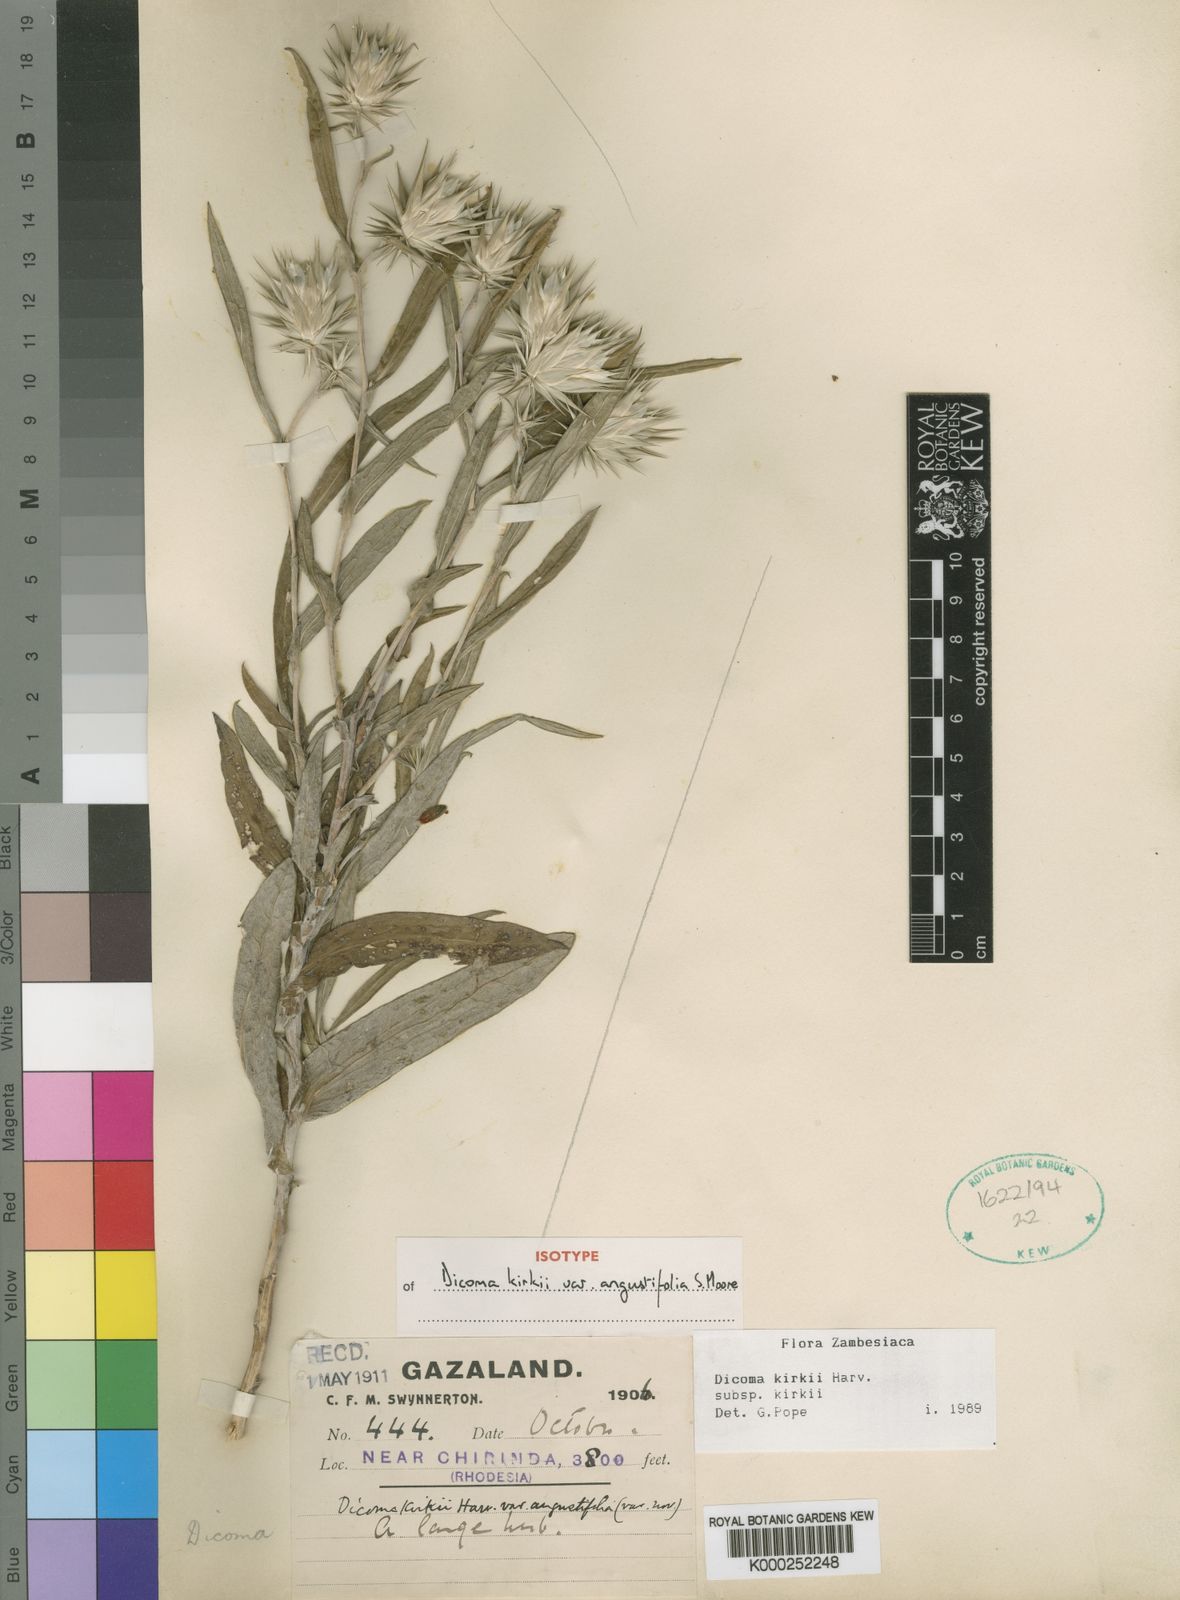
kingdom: Plantae
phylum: Tracheophyta
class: Magnoliopsida
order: Asterales
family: Asteraceae
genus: Macledium
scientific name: Macledium kirkii
